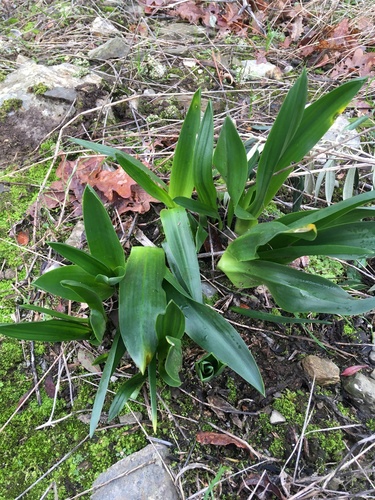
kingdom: Plantae
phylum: Tracheophyta
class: Liliopsida
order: Asparagales
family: Asparagaceae
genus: Drimia
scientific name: Drimia maritima
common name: Maritime squill
